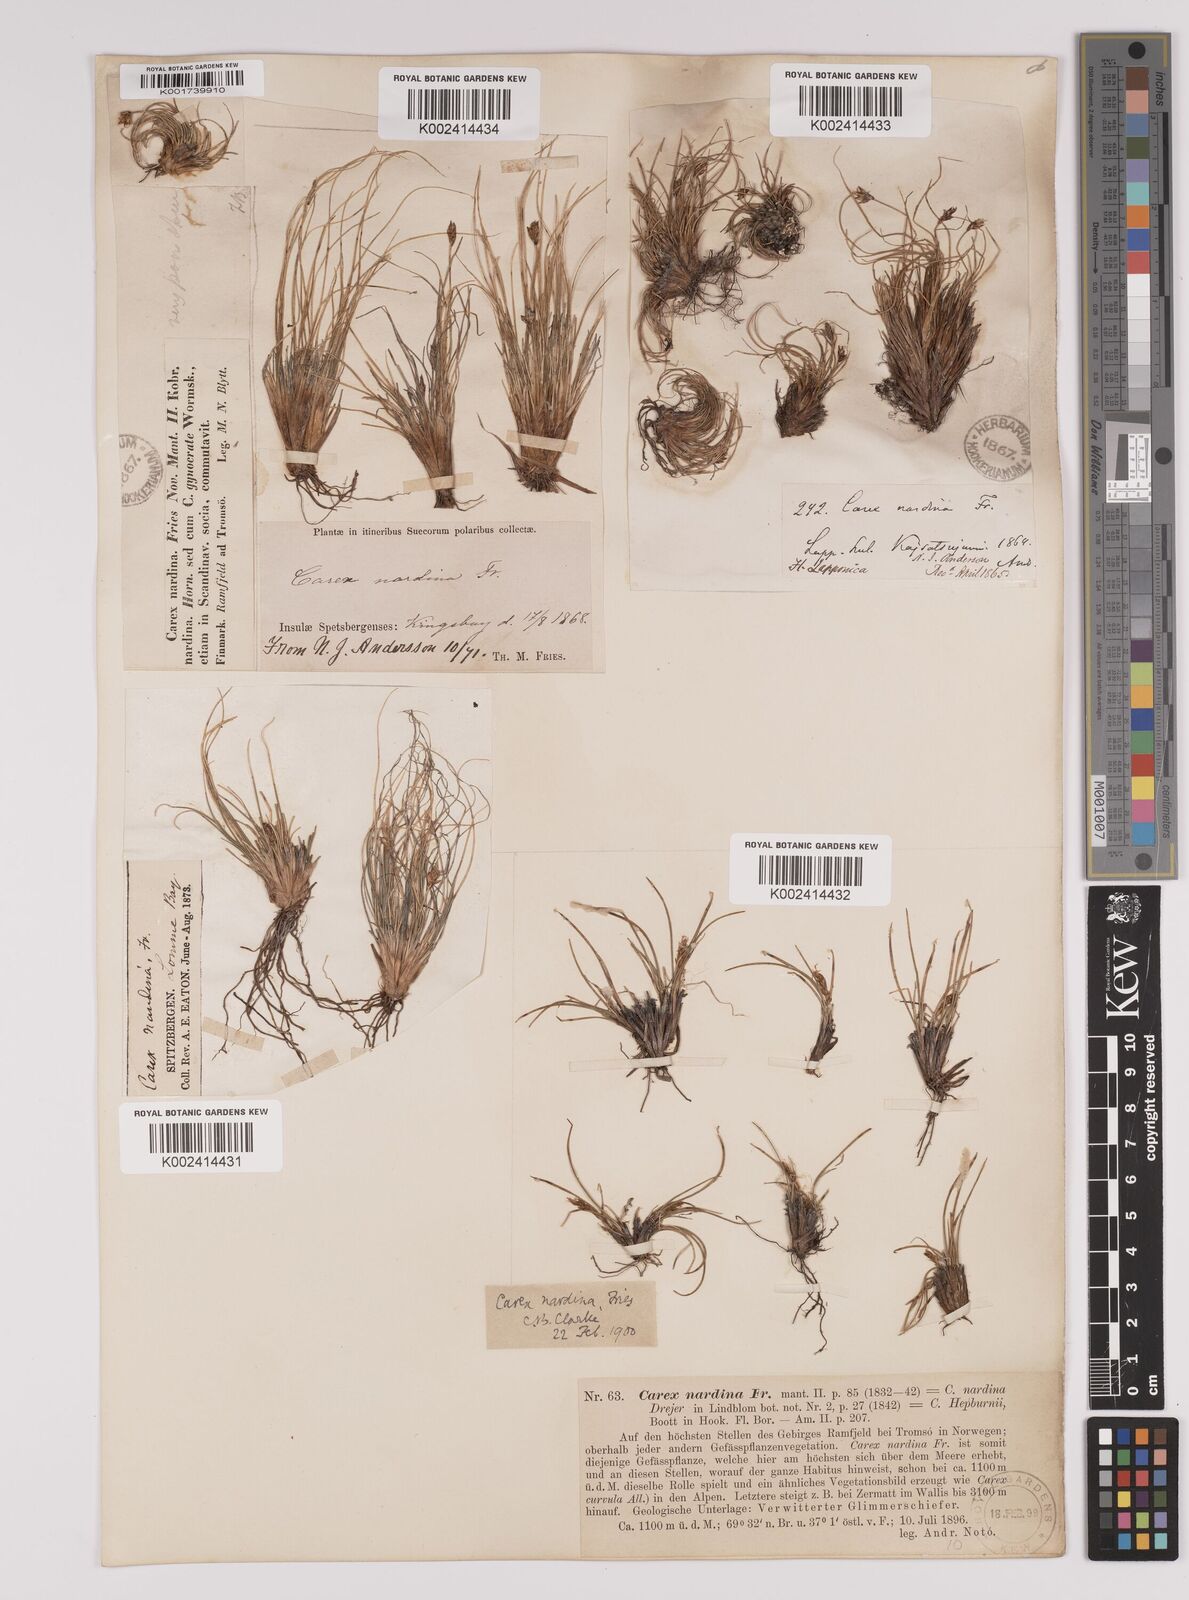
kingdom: Plantae
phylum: Tracheophyta
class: Liliopsida
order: Poales
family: Cyperaceae
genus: Carex
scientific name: Carex nardina
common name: Nard sedge
